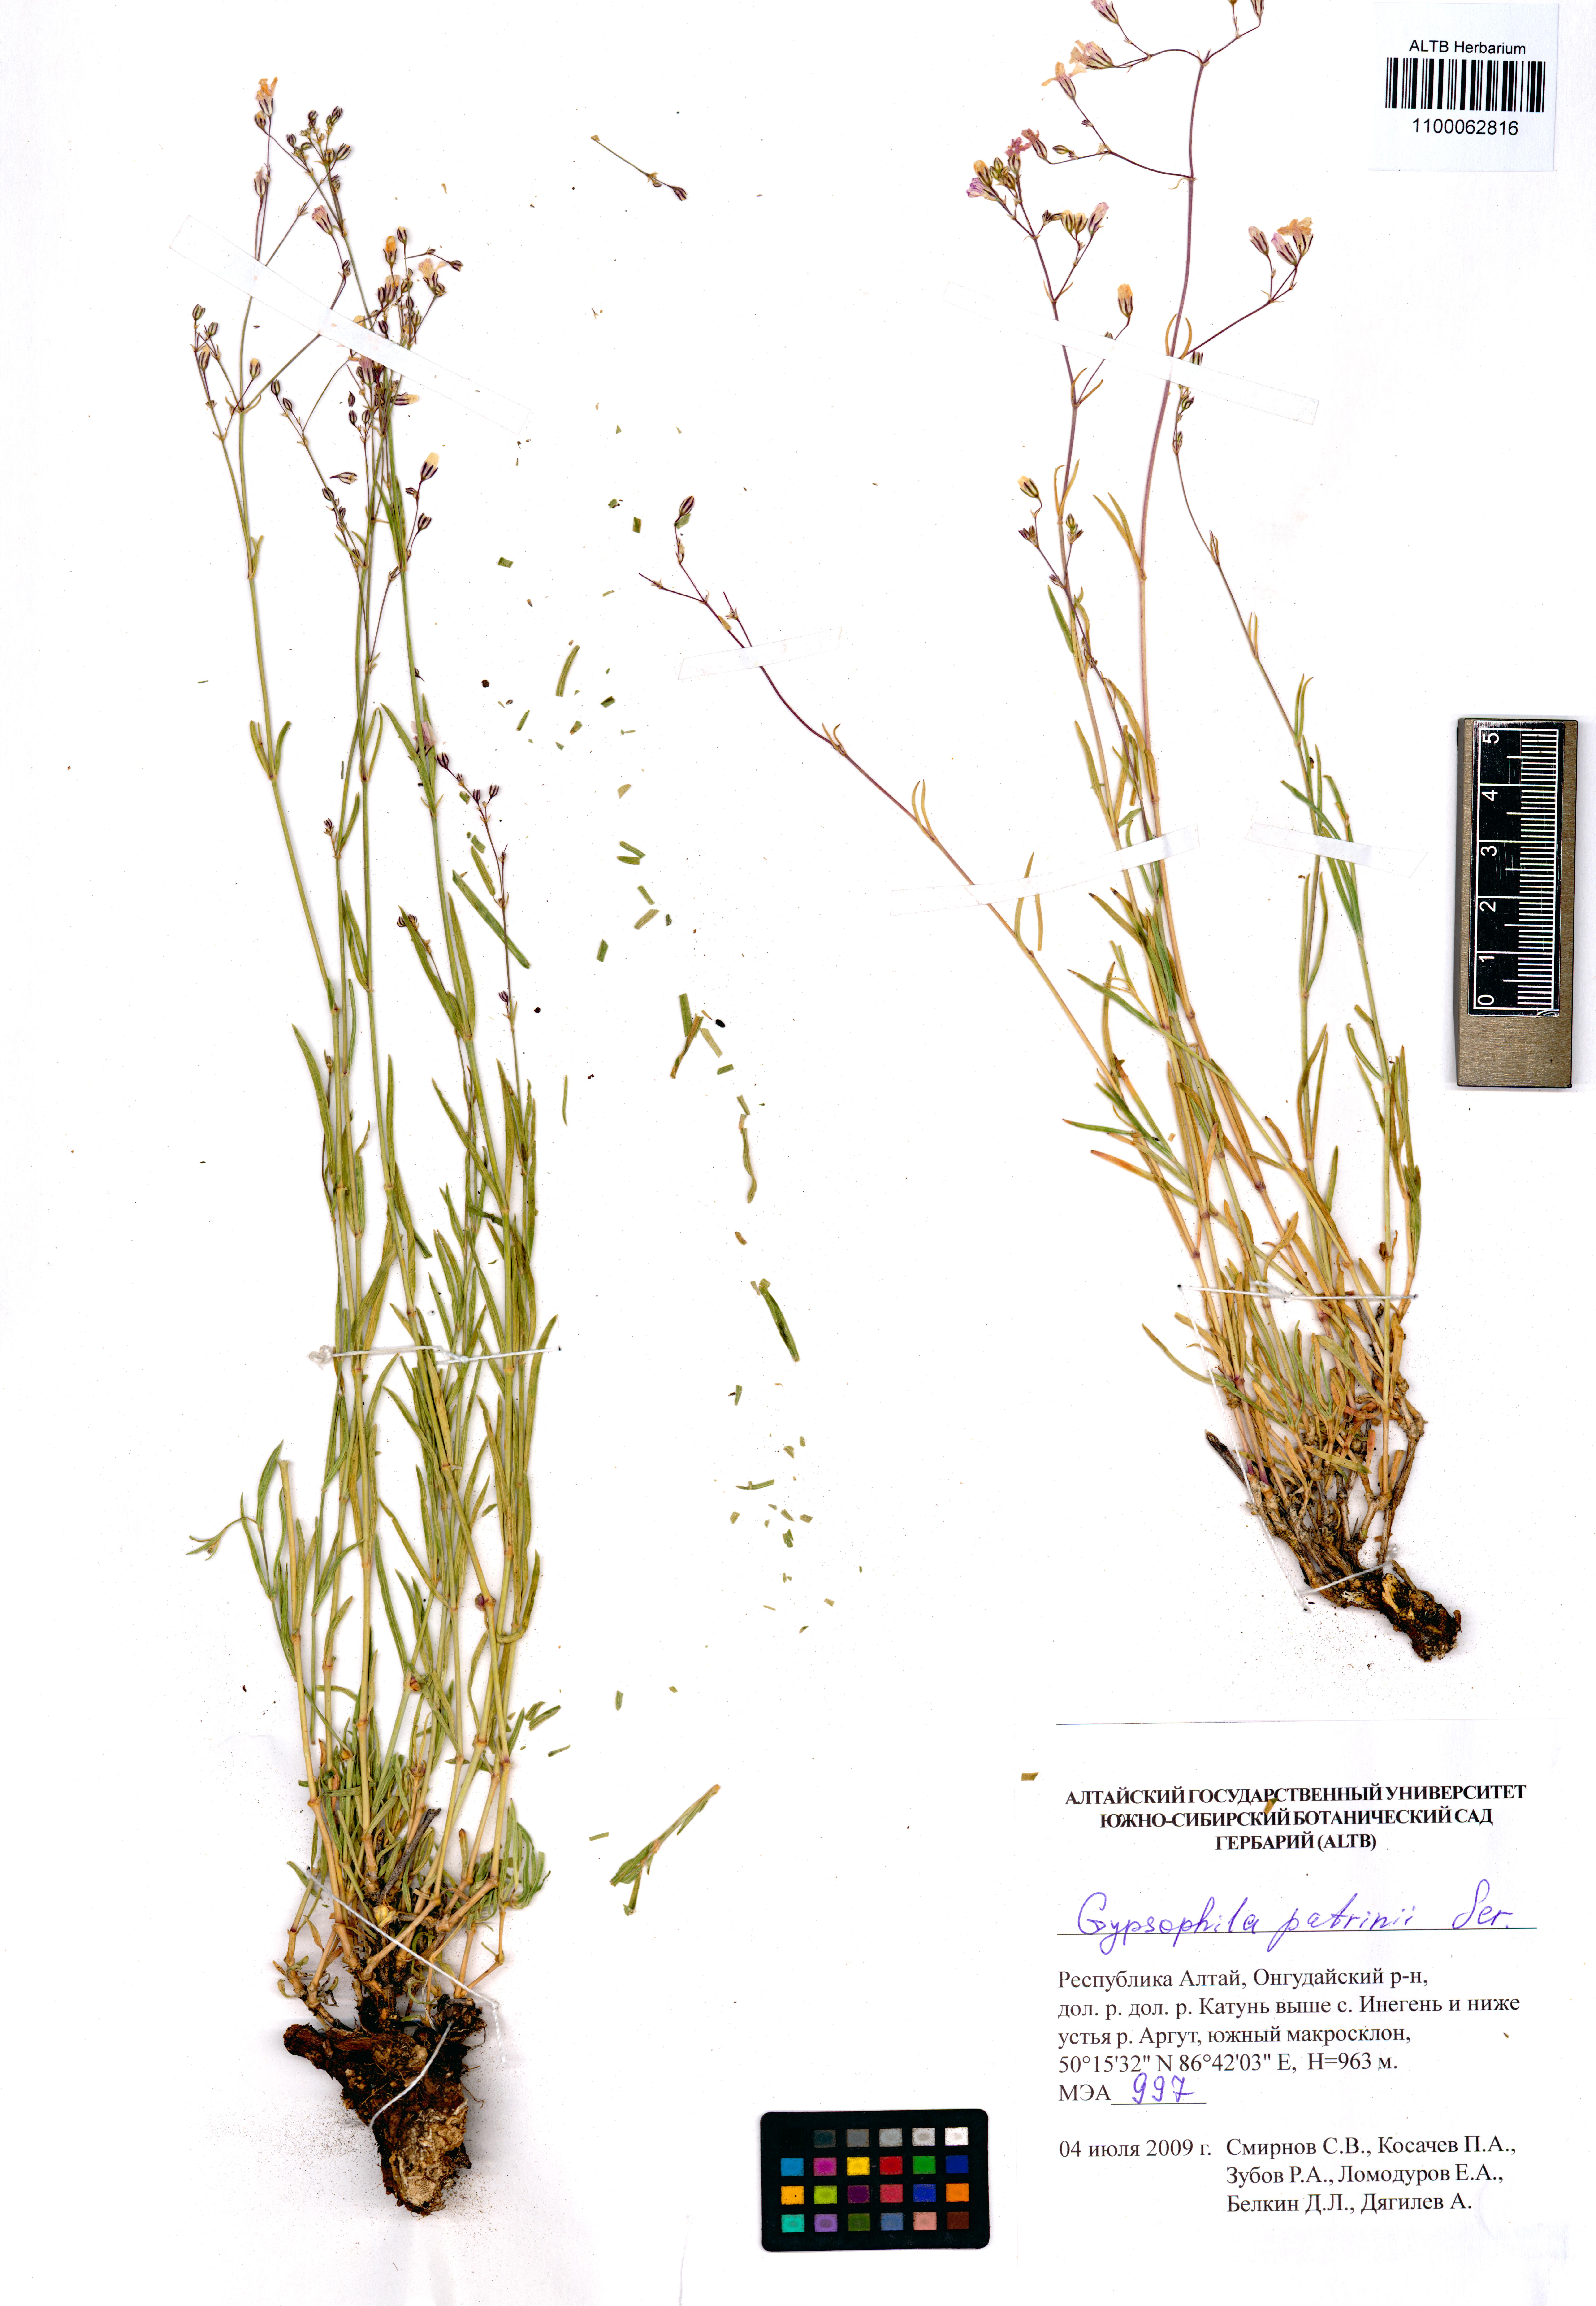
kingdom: Plantae
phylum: Tracheophyta
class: Magnoliopsida
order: Caryophyllales
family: Caryophyllaceae
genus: Gypsophila
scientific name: Gypsophila patrinii
